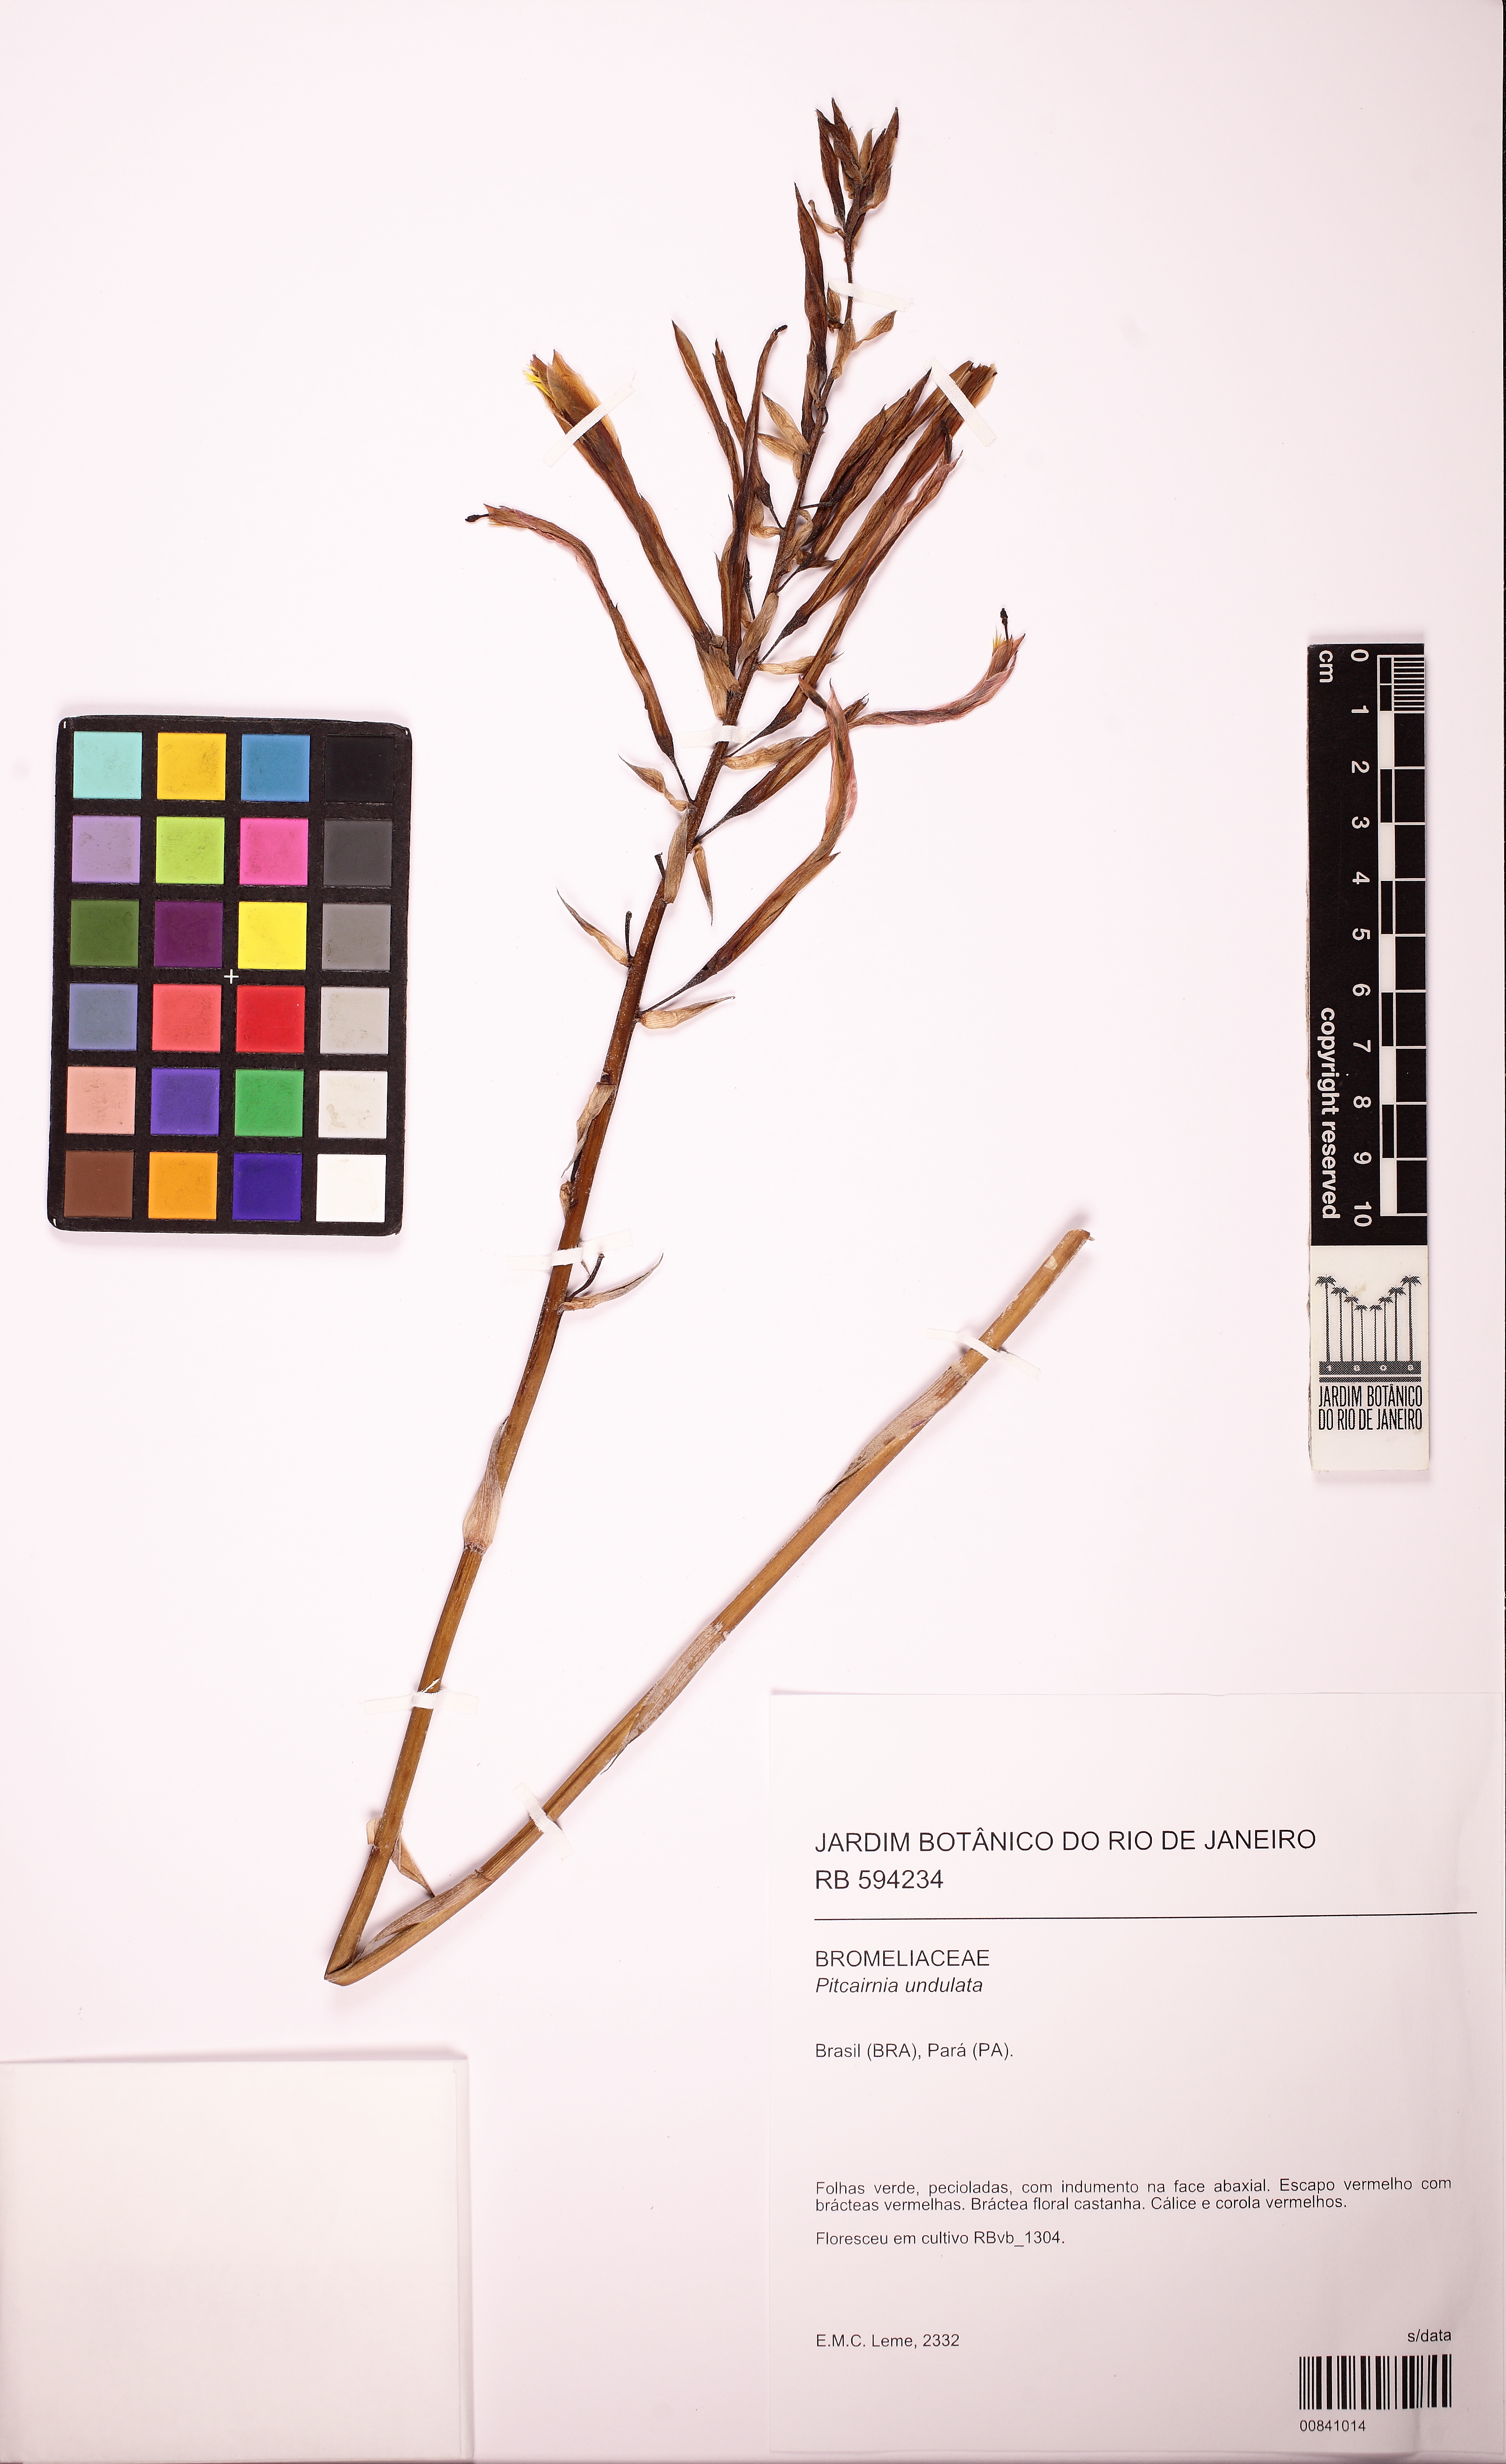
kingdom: Plantae
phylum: Tracheophyta
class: Liliopsida
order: Poales
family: Bromeliaceae
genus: Pitcairnia
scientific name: Pitcairnia undulata
